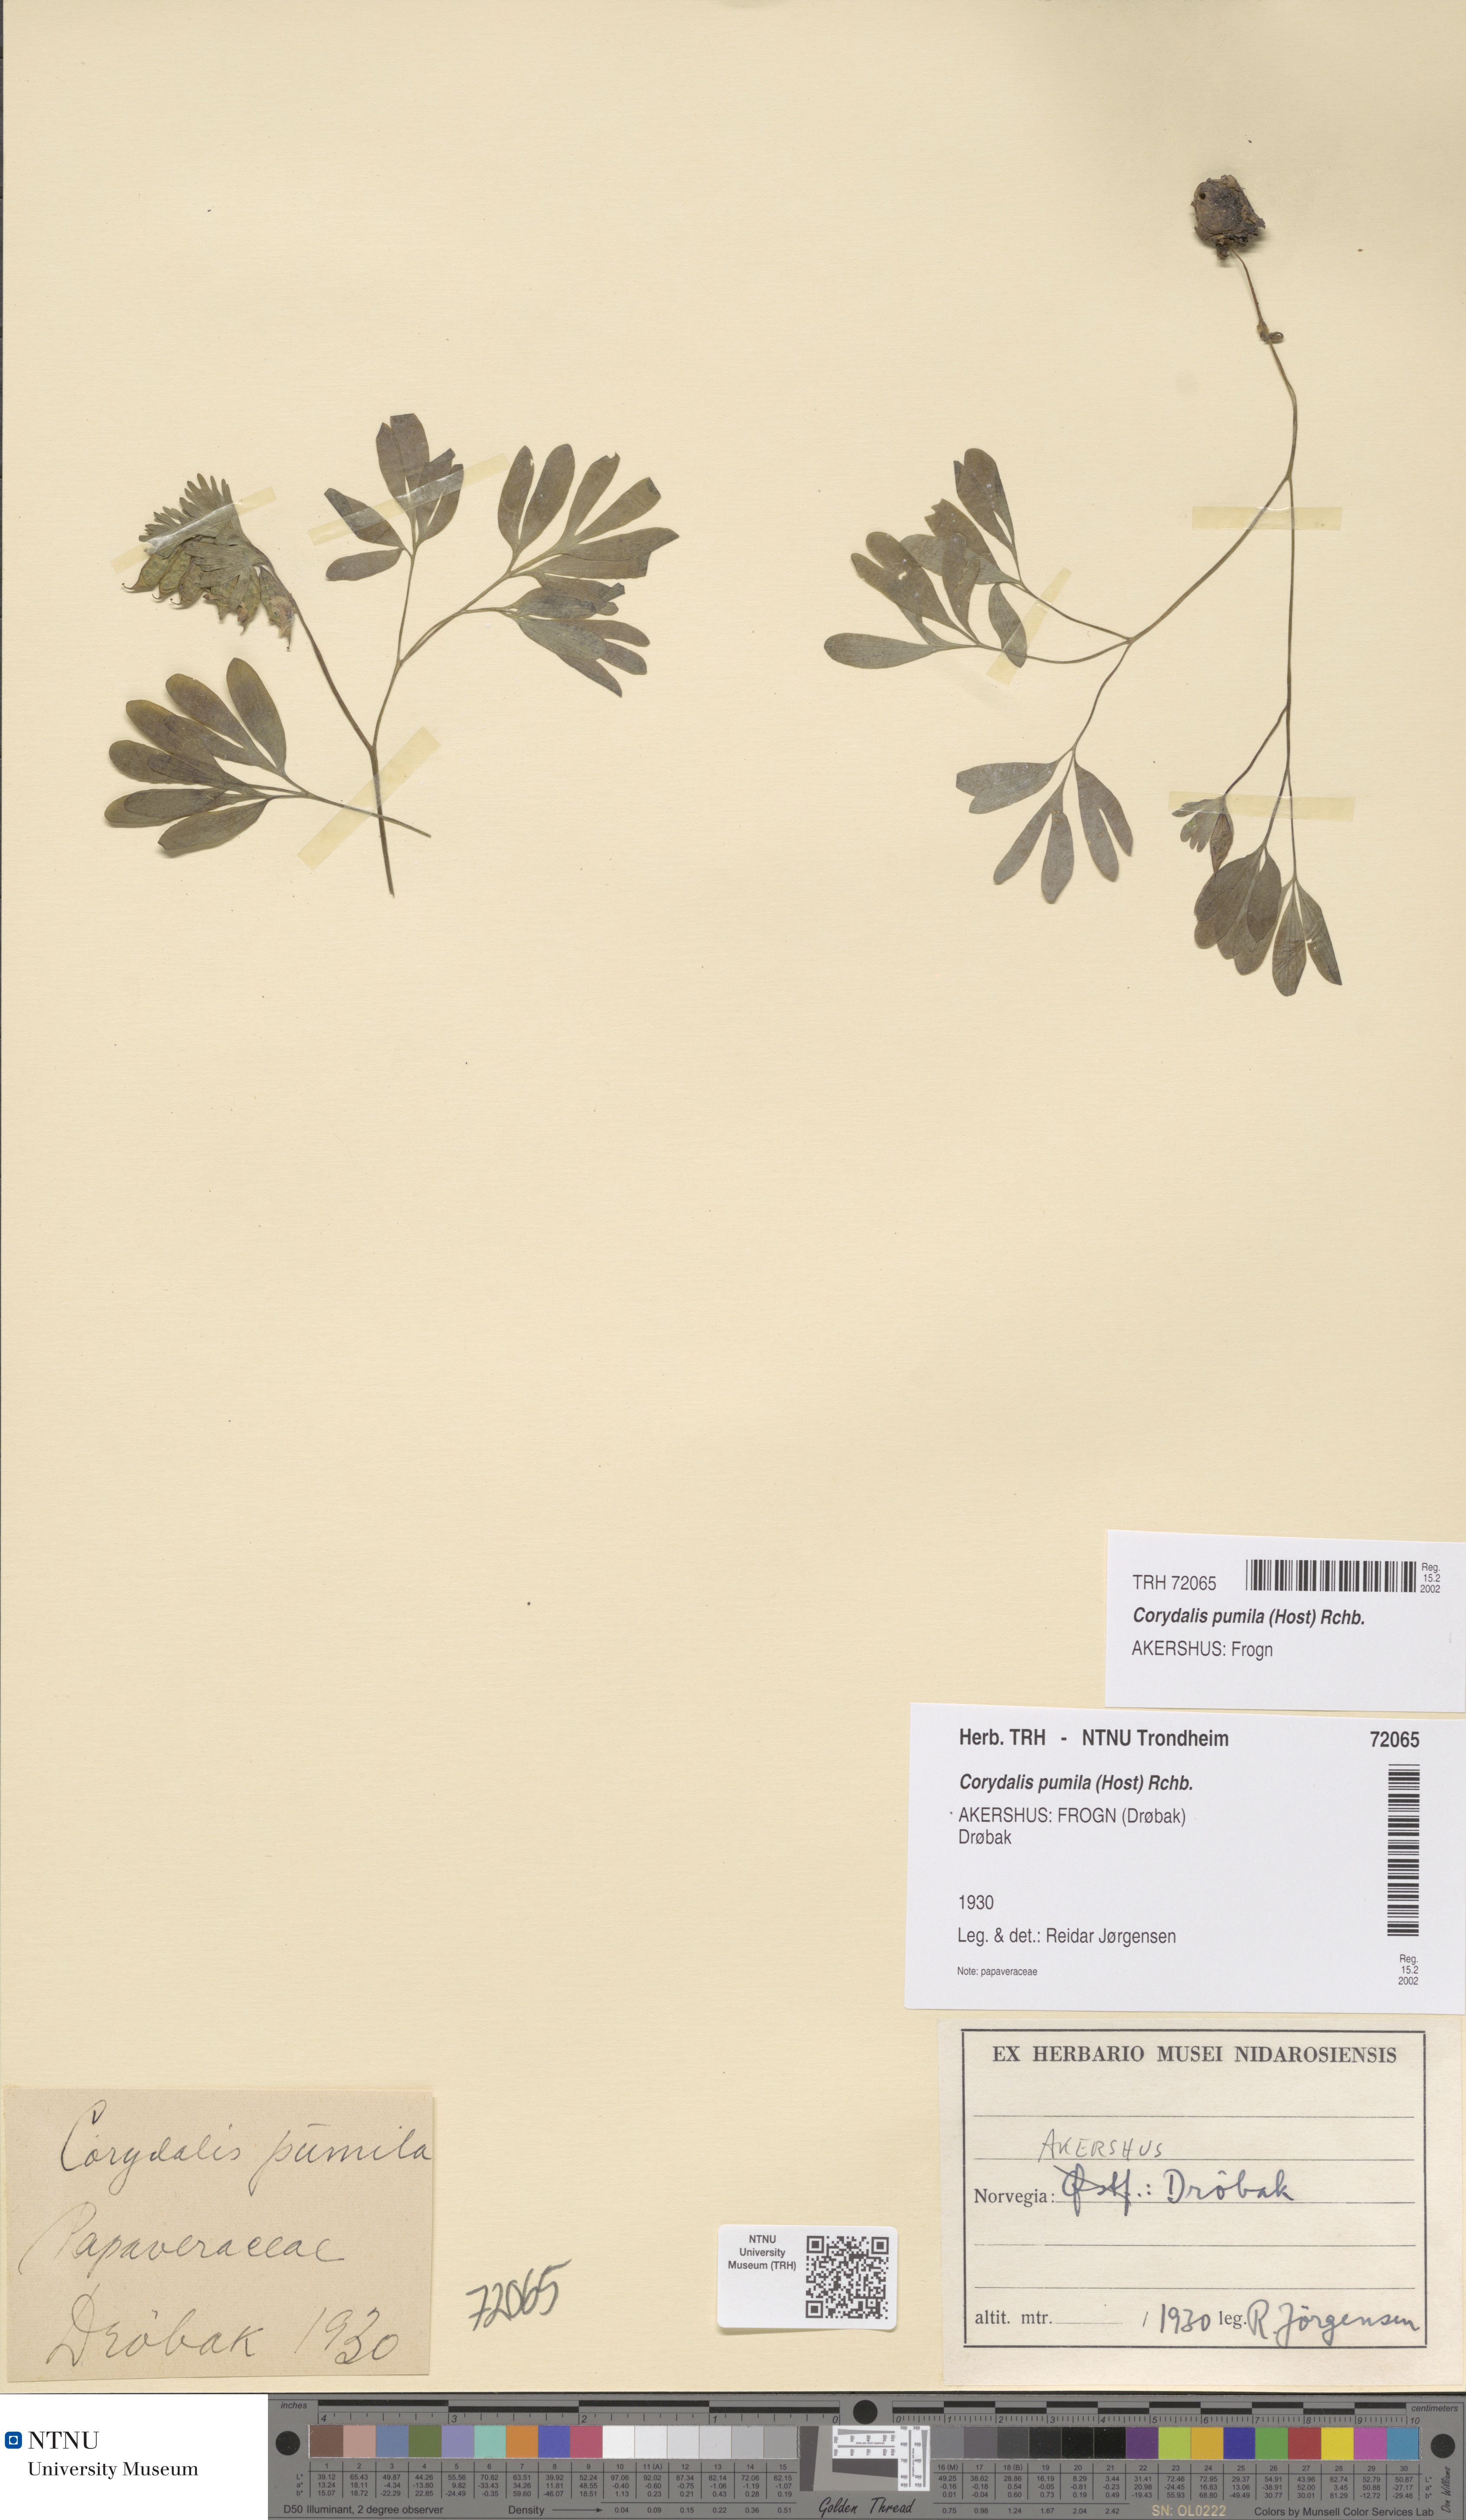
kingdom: Plantae
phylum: Tracheophyta
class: Magnoliopsida
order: Ranunculales
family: Papaveraceae
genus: Corydalis
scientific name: Corydalis pumila
